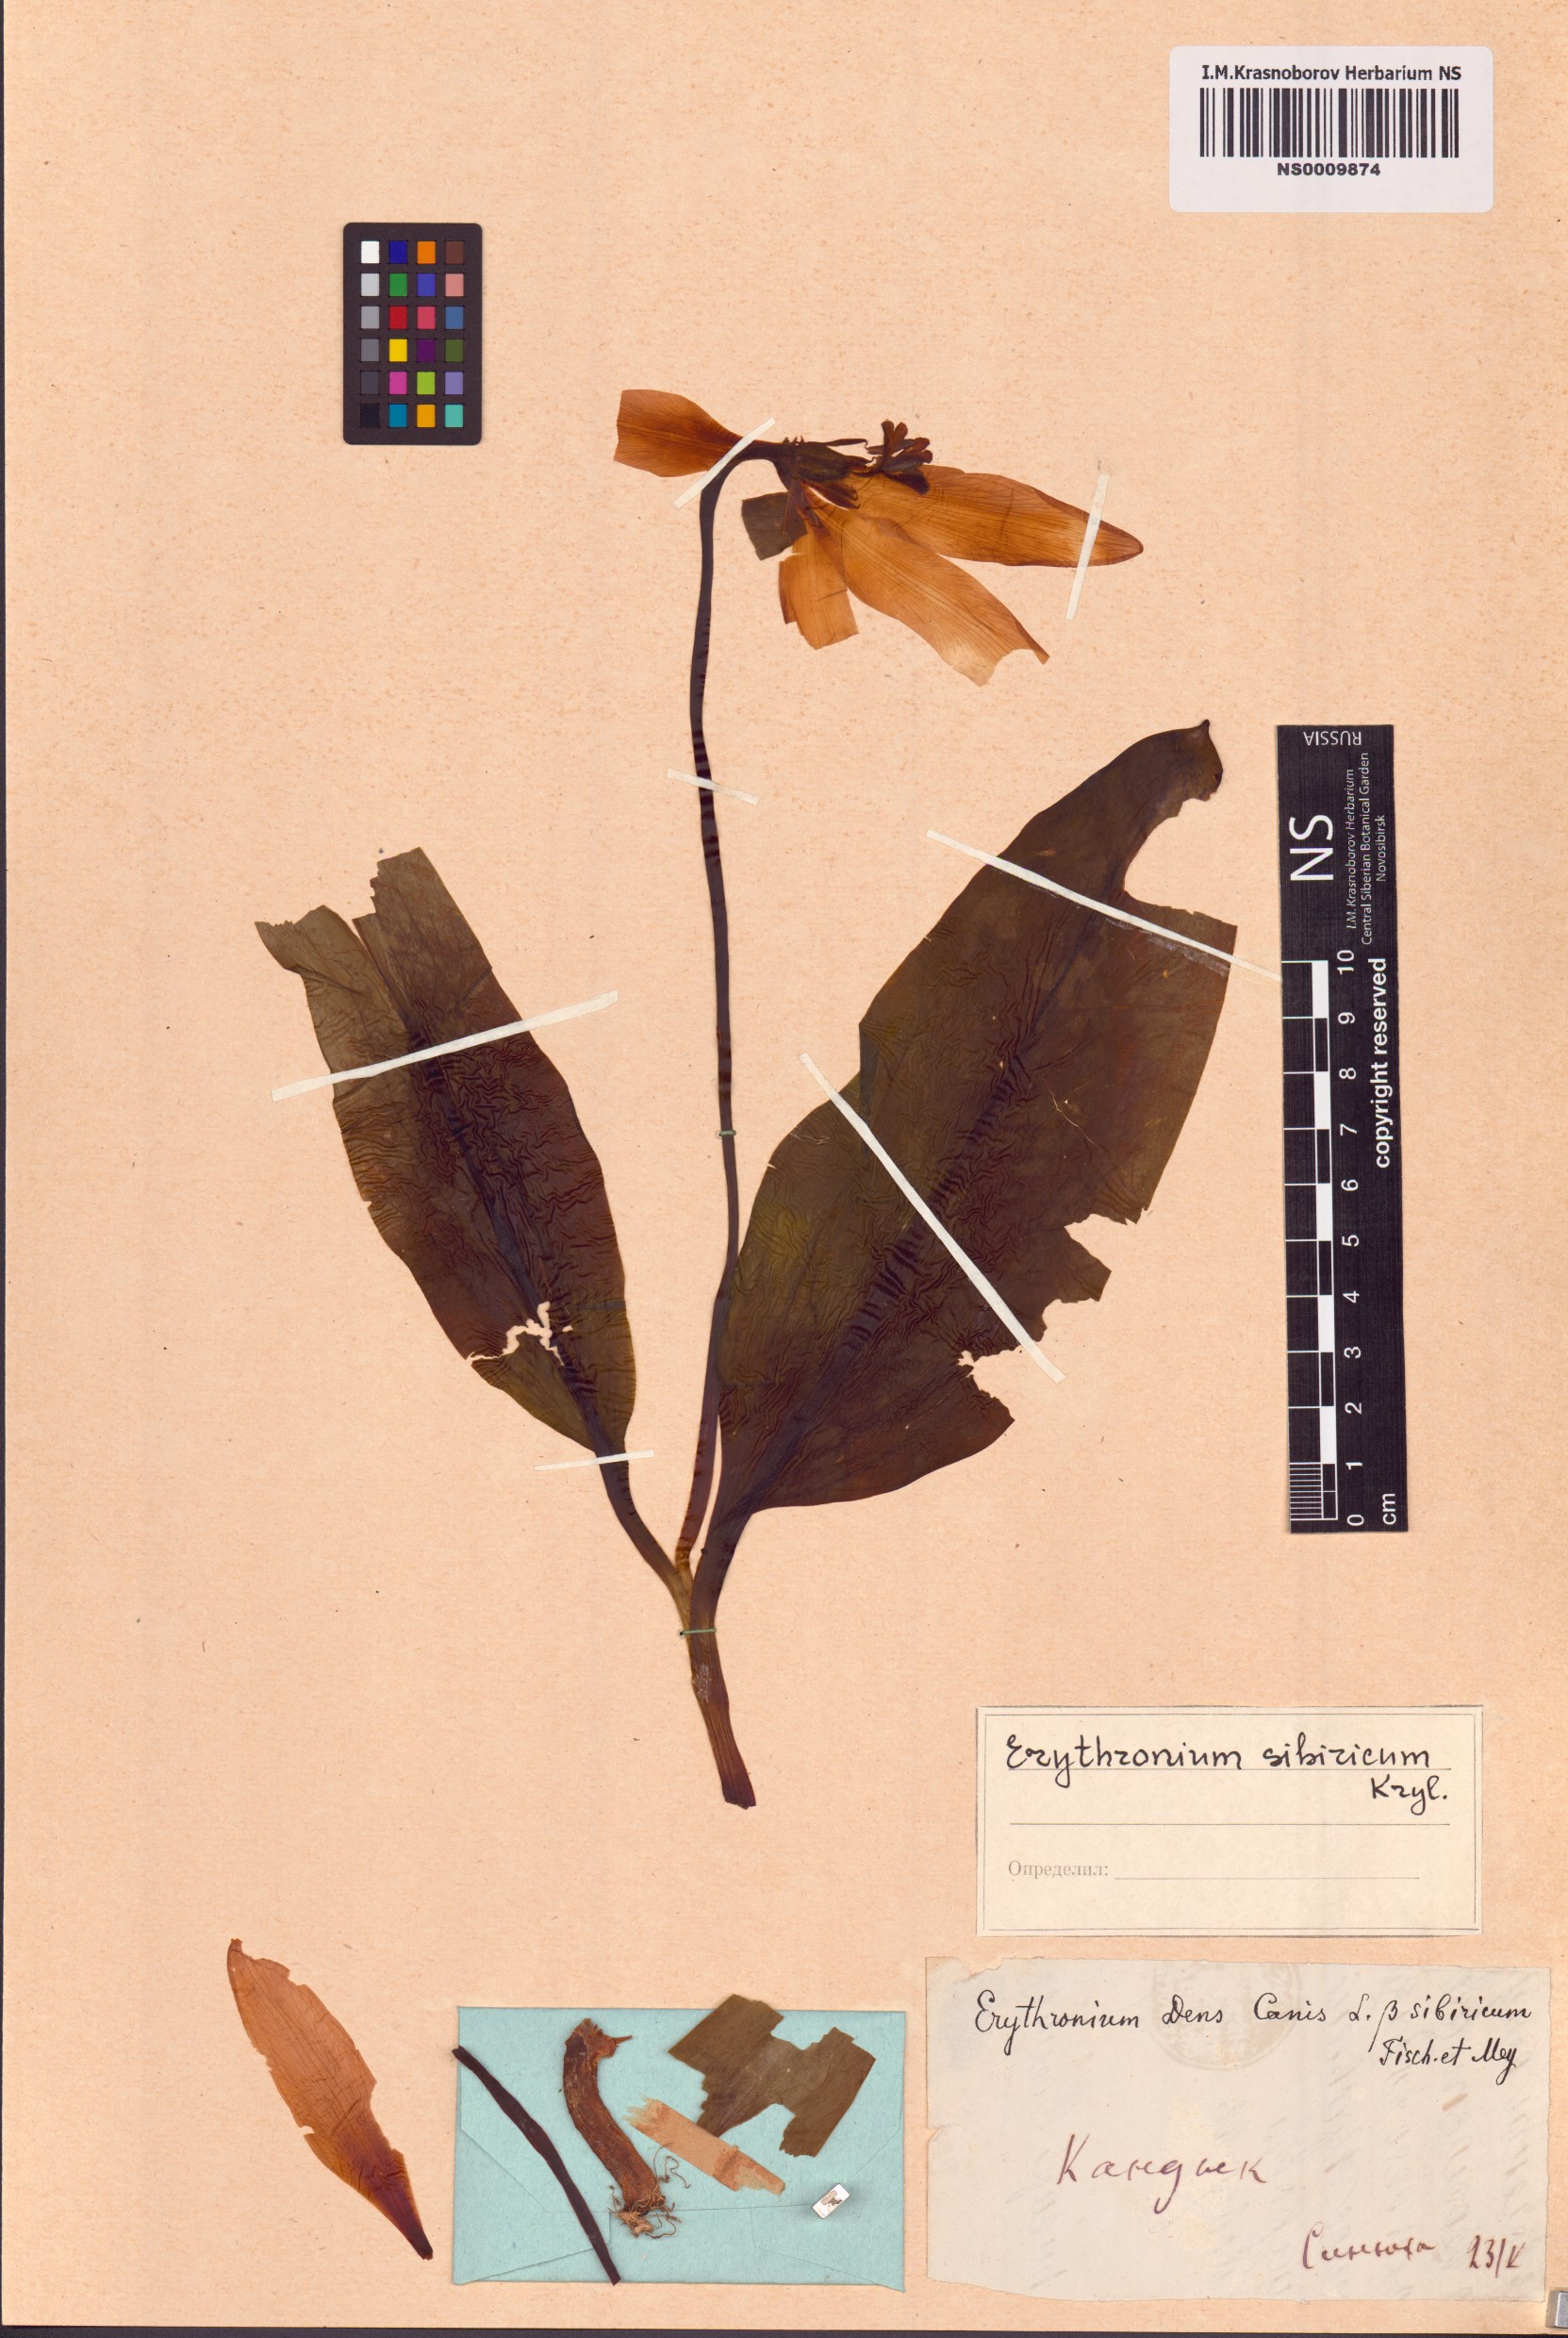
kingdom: Plantae
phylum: Tracheophyta
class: Liliopsida
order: Liliales
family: Liliaceae
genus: Erythronium
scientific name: Erythronium sibiricum
